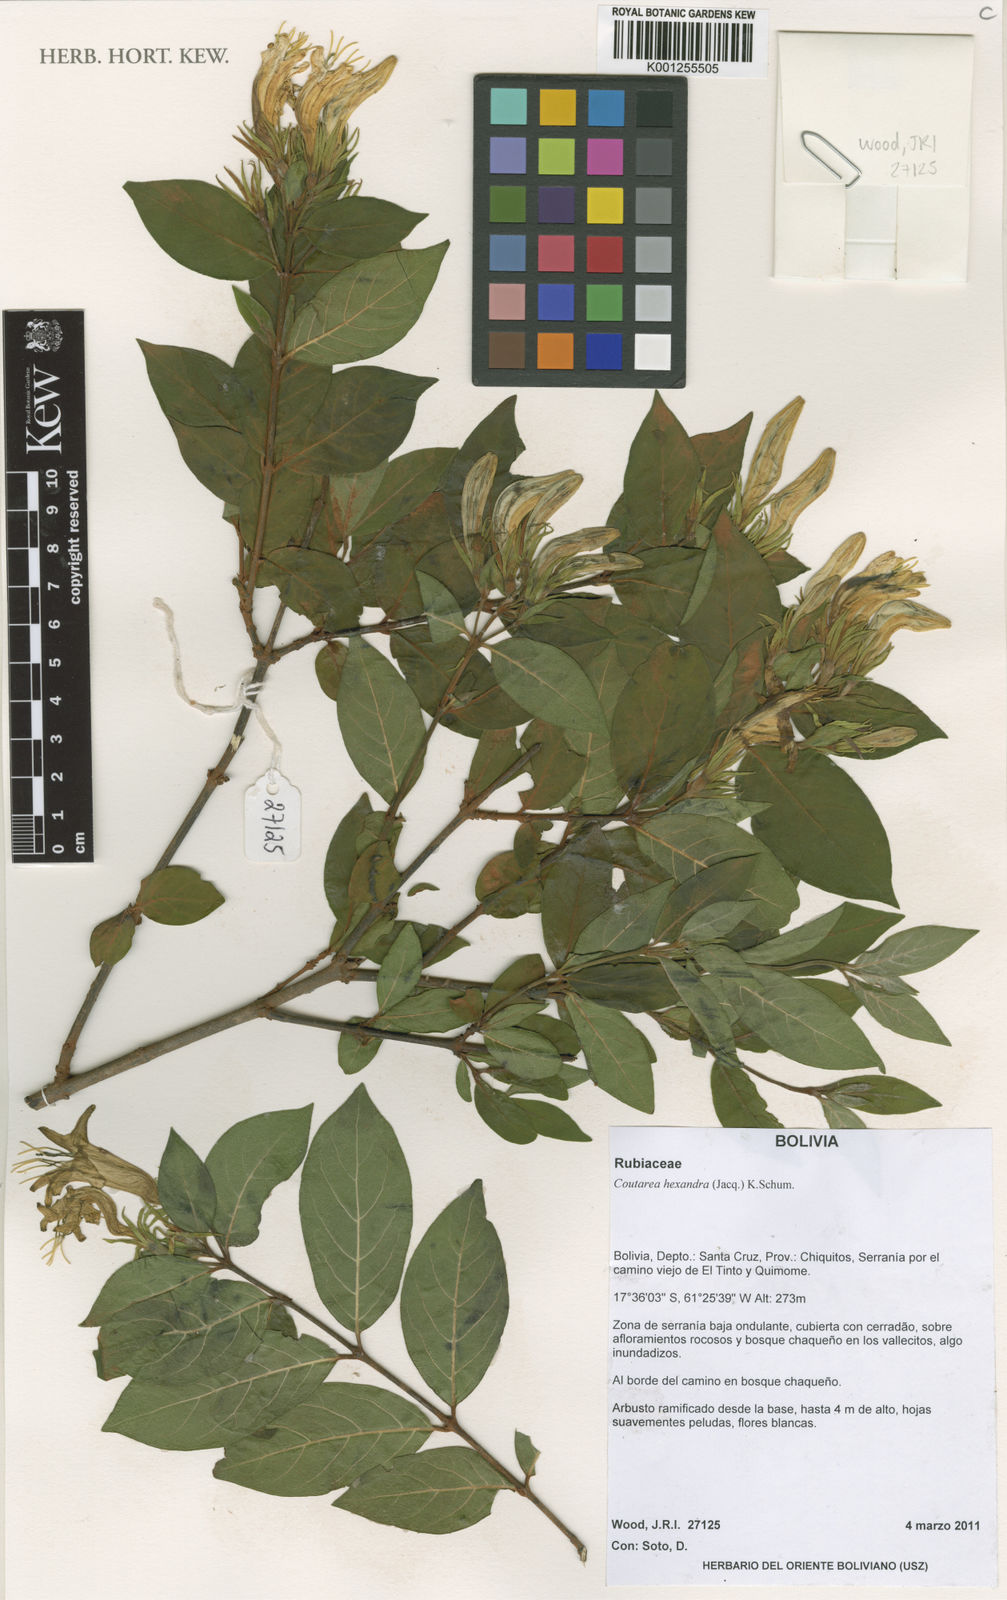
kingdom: Plantae
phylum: Tracheophyta
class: Magnoliopsida
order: Gentianales
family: Rubiaceae
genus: Coutarea
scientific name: Coutarea hexandra
